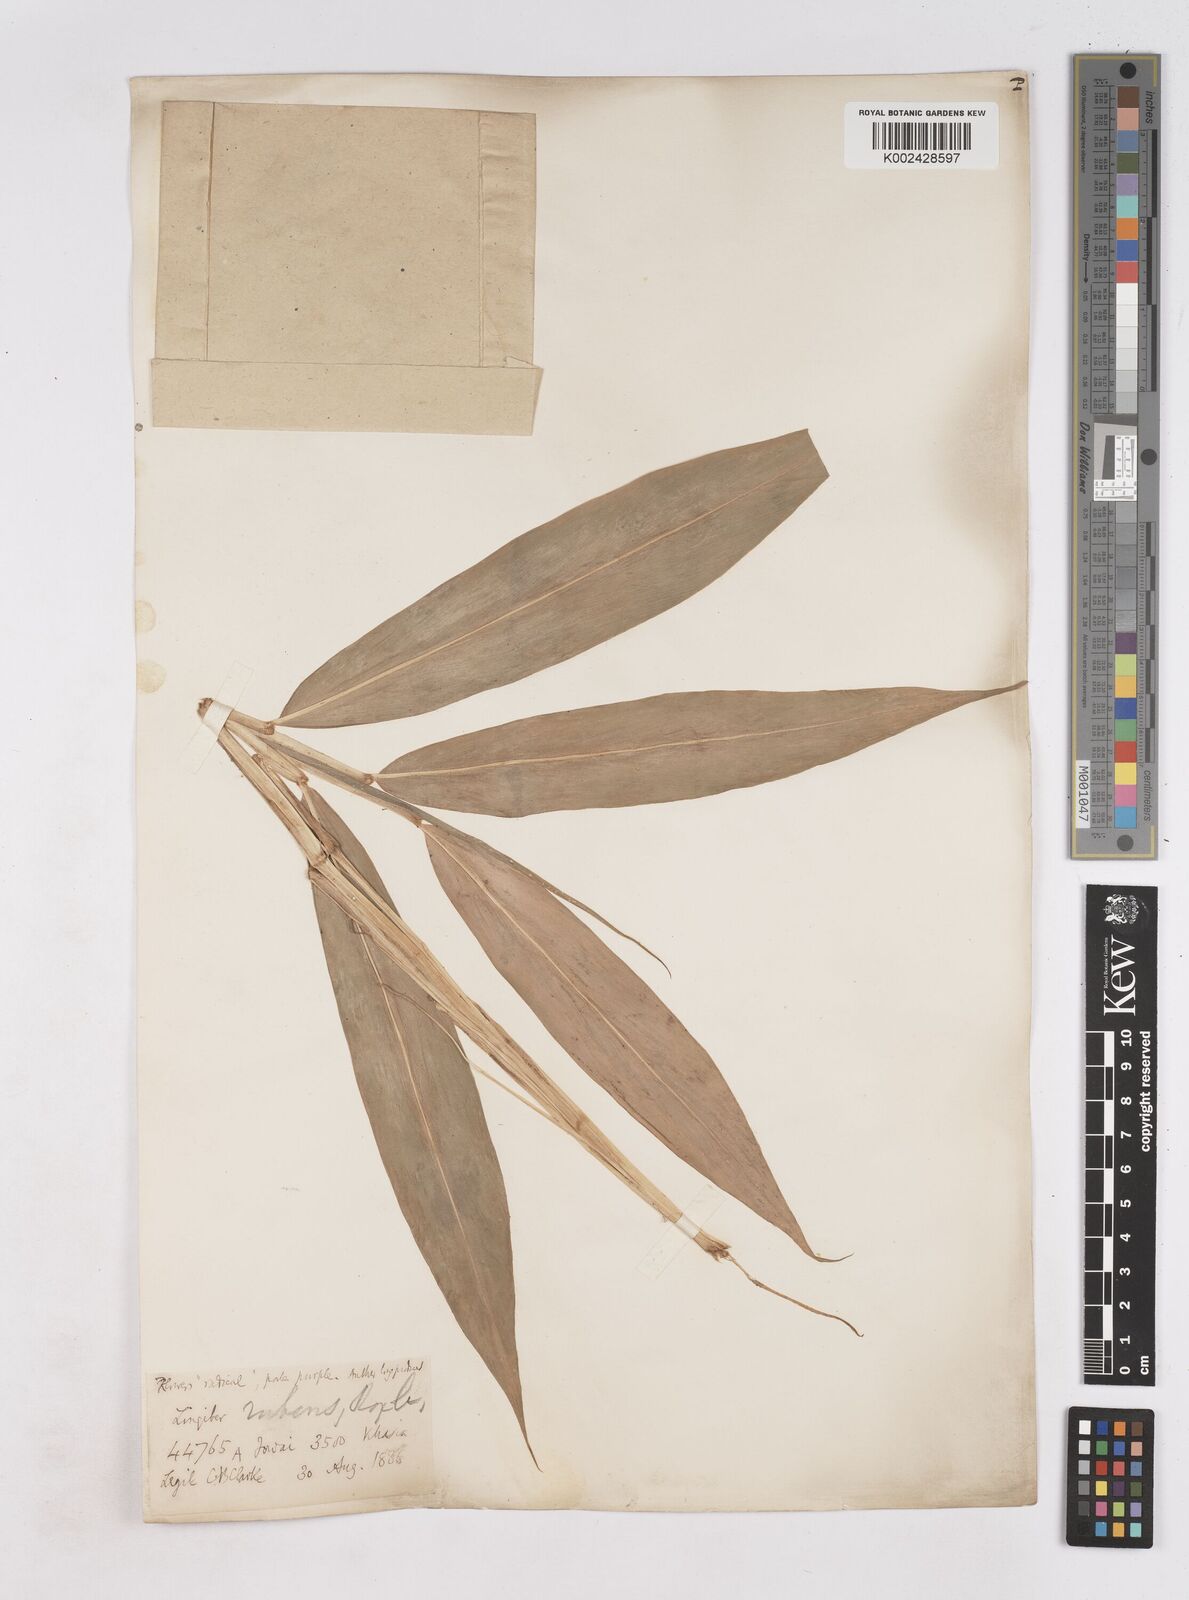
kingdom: Plantae
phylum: Tracheophyta
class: Liliopsida
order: Zingiberales
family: Zingiberaceae
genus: Zingiber
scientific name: Zingiber rubens
